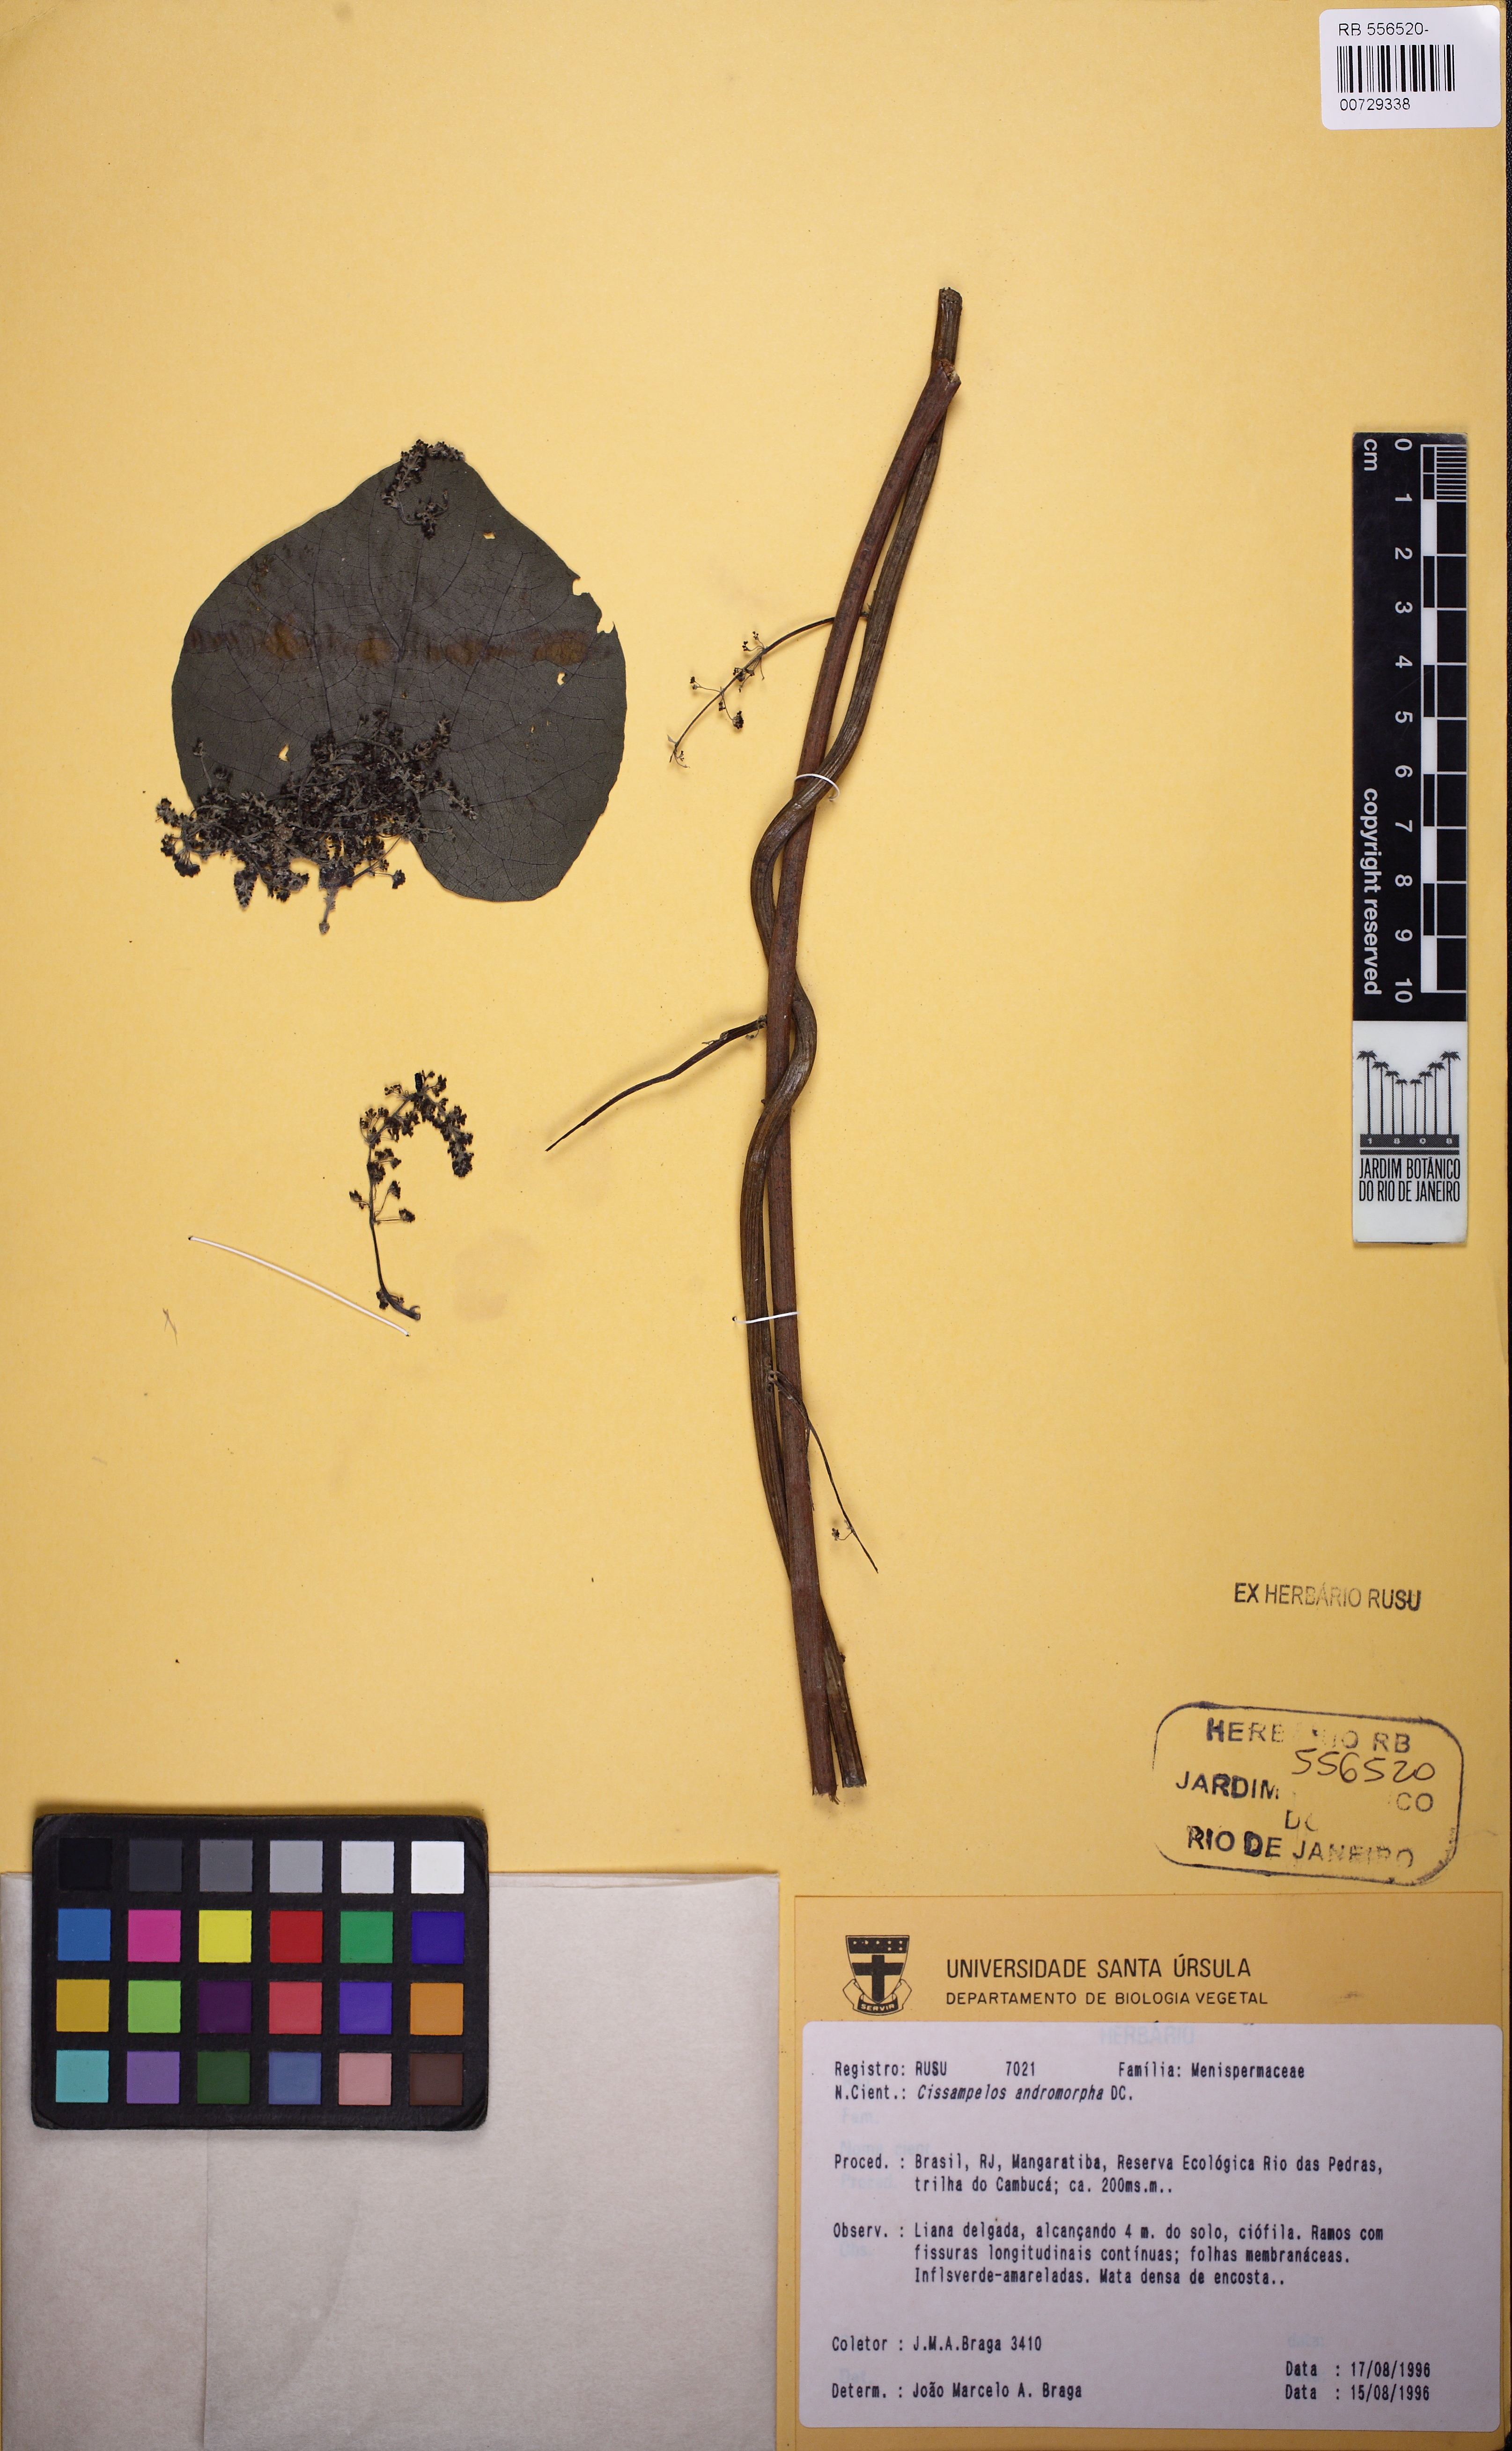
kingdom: Plantae
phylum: Tracheophyta
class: Magnoliopsida
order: Ranunculales
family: Menispermaceae
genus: Cissampelos
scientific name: Cissampelos andromorpha
